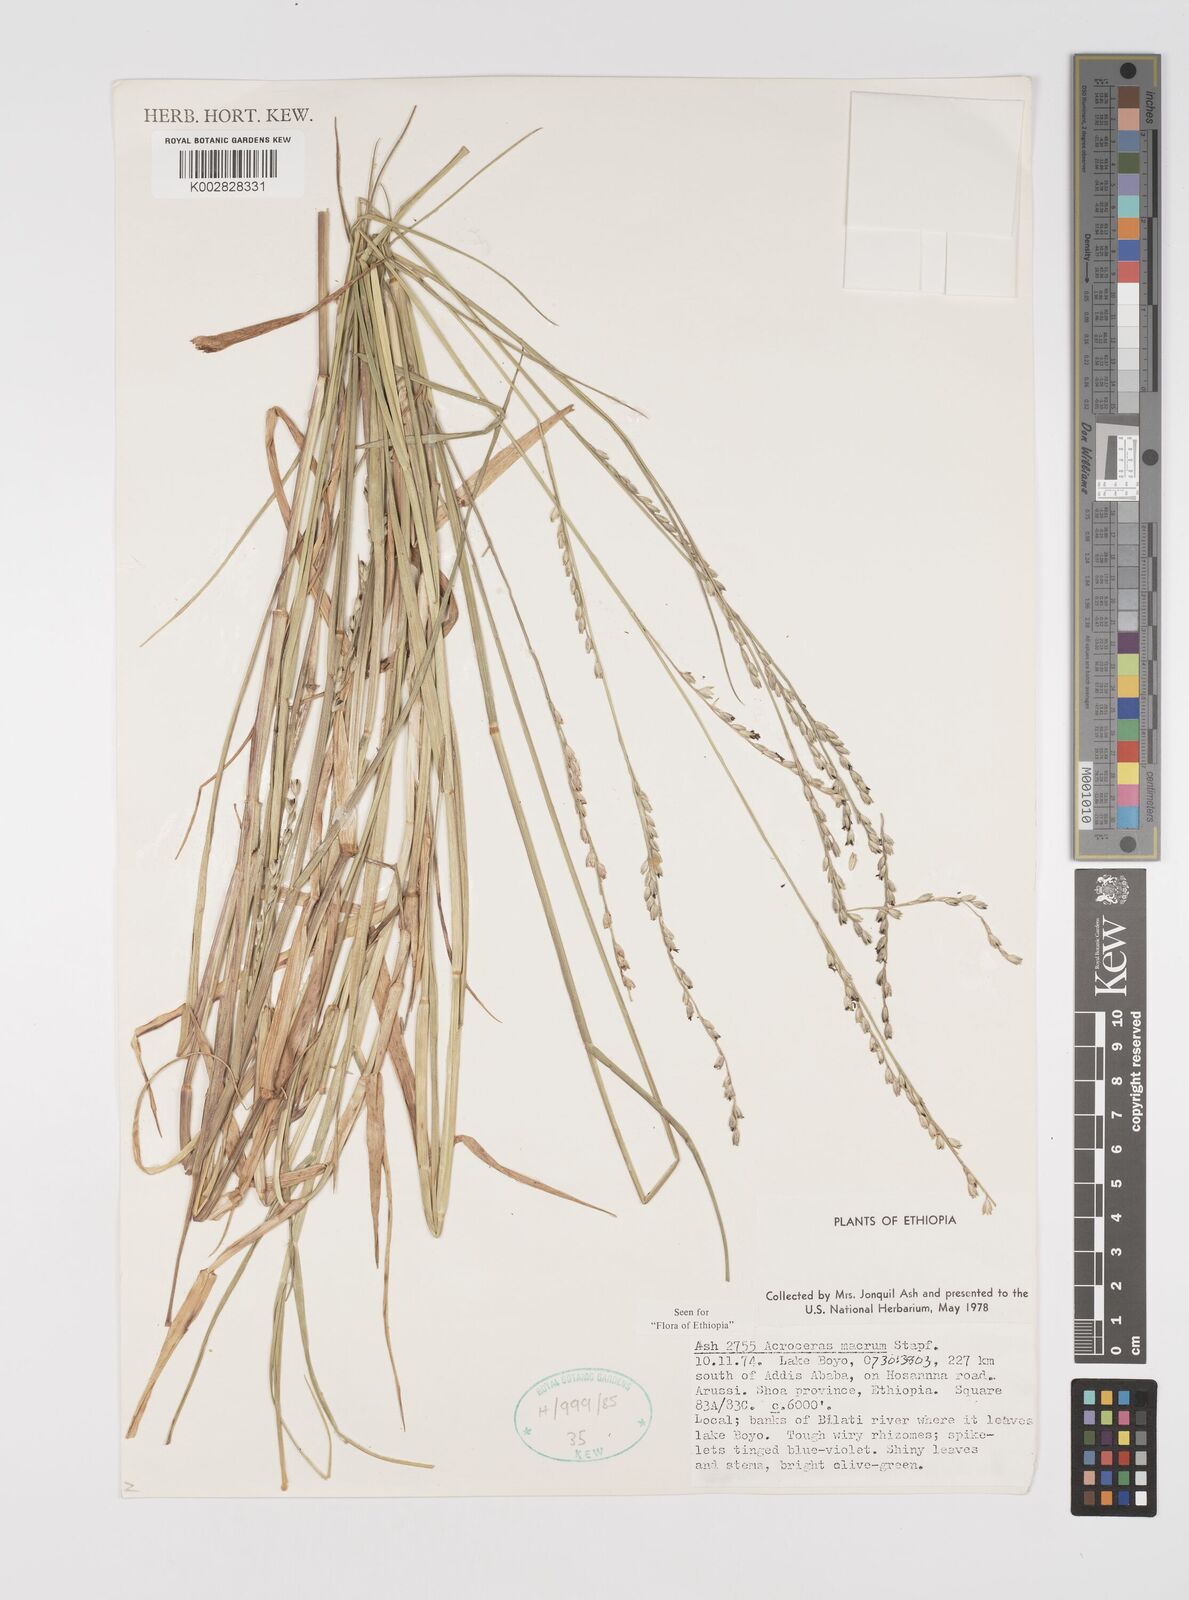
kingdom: Plantae
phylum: Tracheophyta
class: Liliopsida
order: Poales
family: Poaceae
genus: Acroceras
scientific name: Acroceras macrum
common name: Nyl grass
